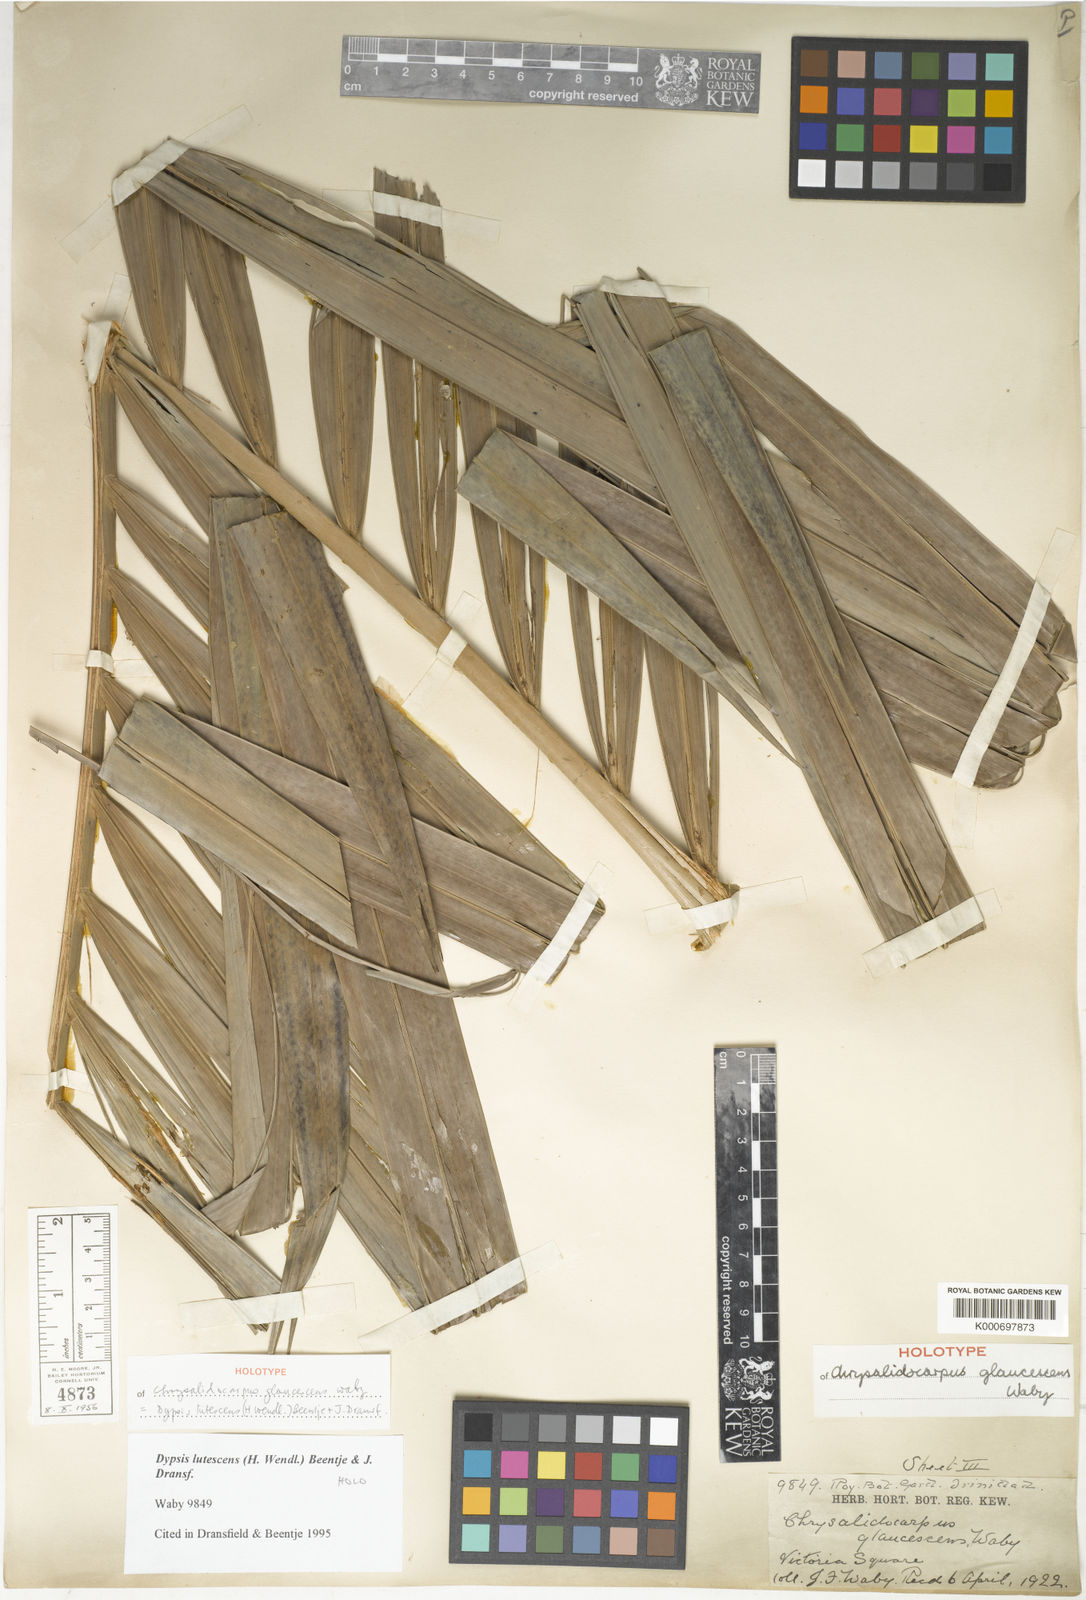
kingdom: Plantae
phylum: Tracheophyta
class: Liliopsida
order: Arecales
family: Arecaceae
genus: Dypsis
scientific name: Dypsis lutescens
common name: Yellow butterfly palm
